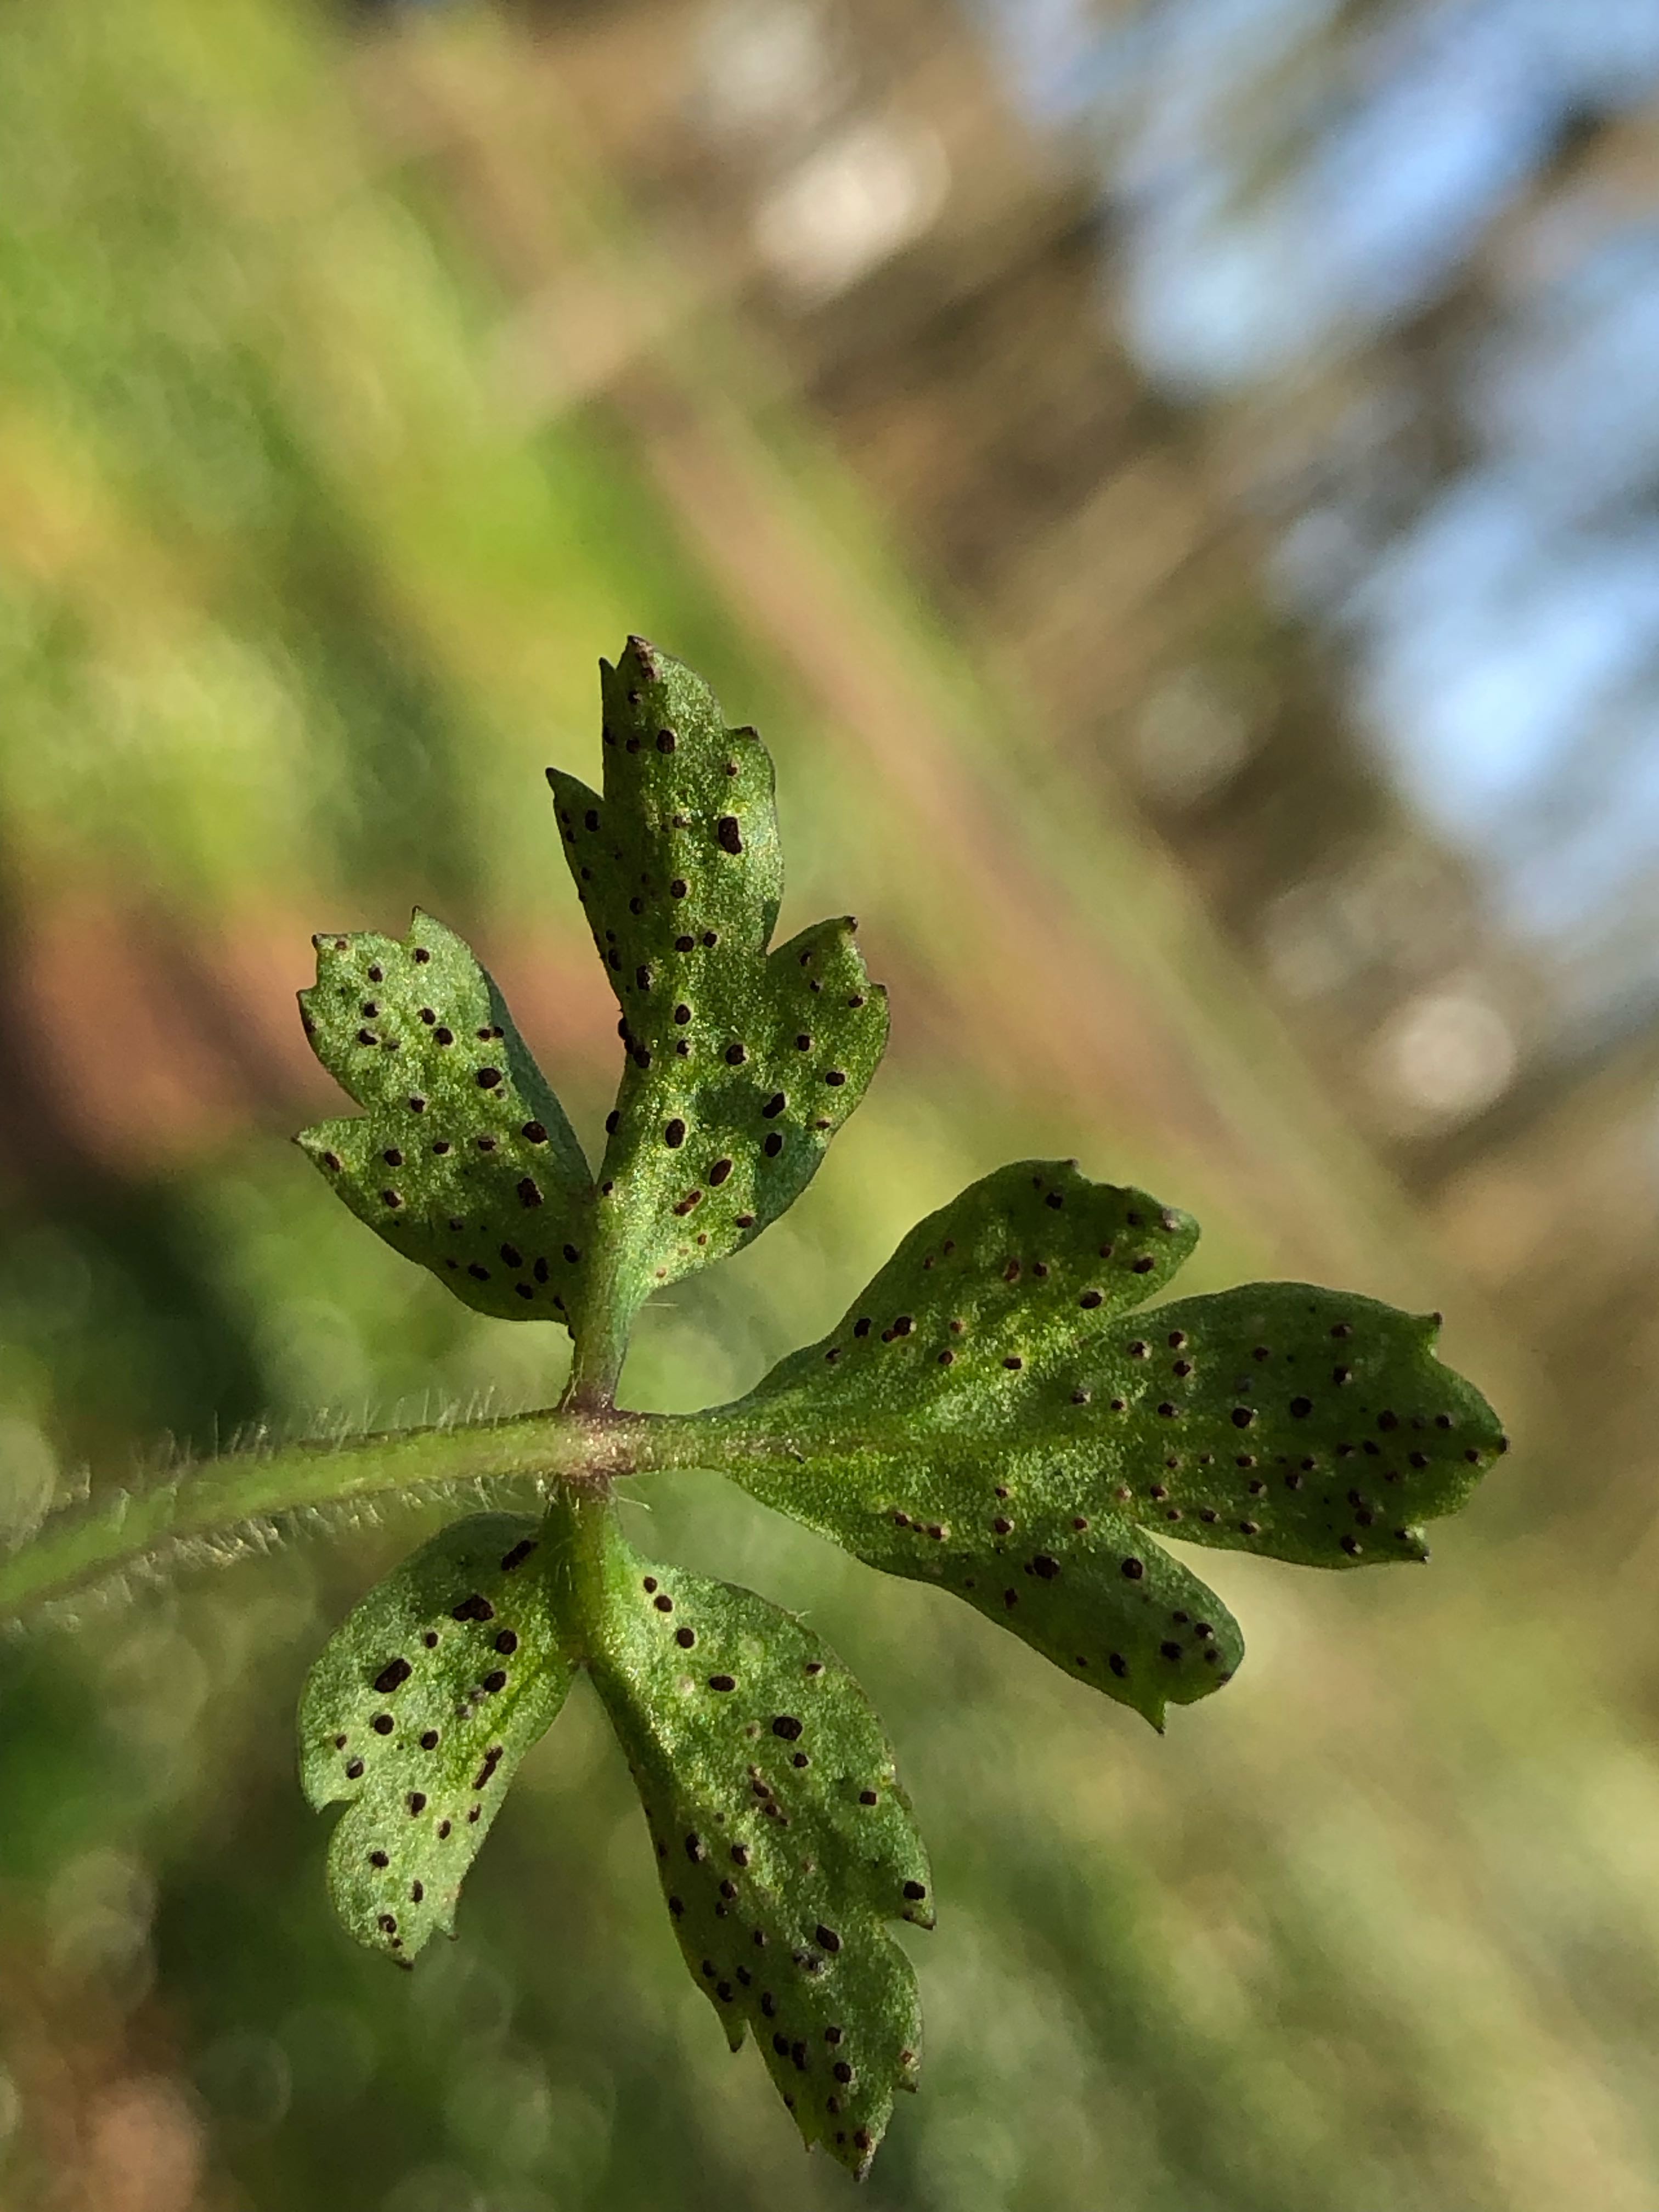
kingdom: Fungi
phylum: Basidiomycota
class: Pucciniomycetes
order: Pucciniales
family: Tranzscheliaceae
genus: Tranzschelia
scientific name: Tranzschelia anemones
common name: anemone-knæksporerust
